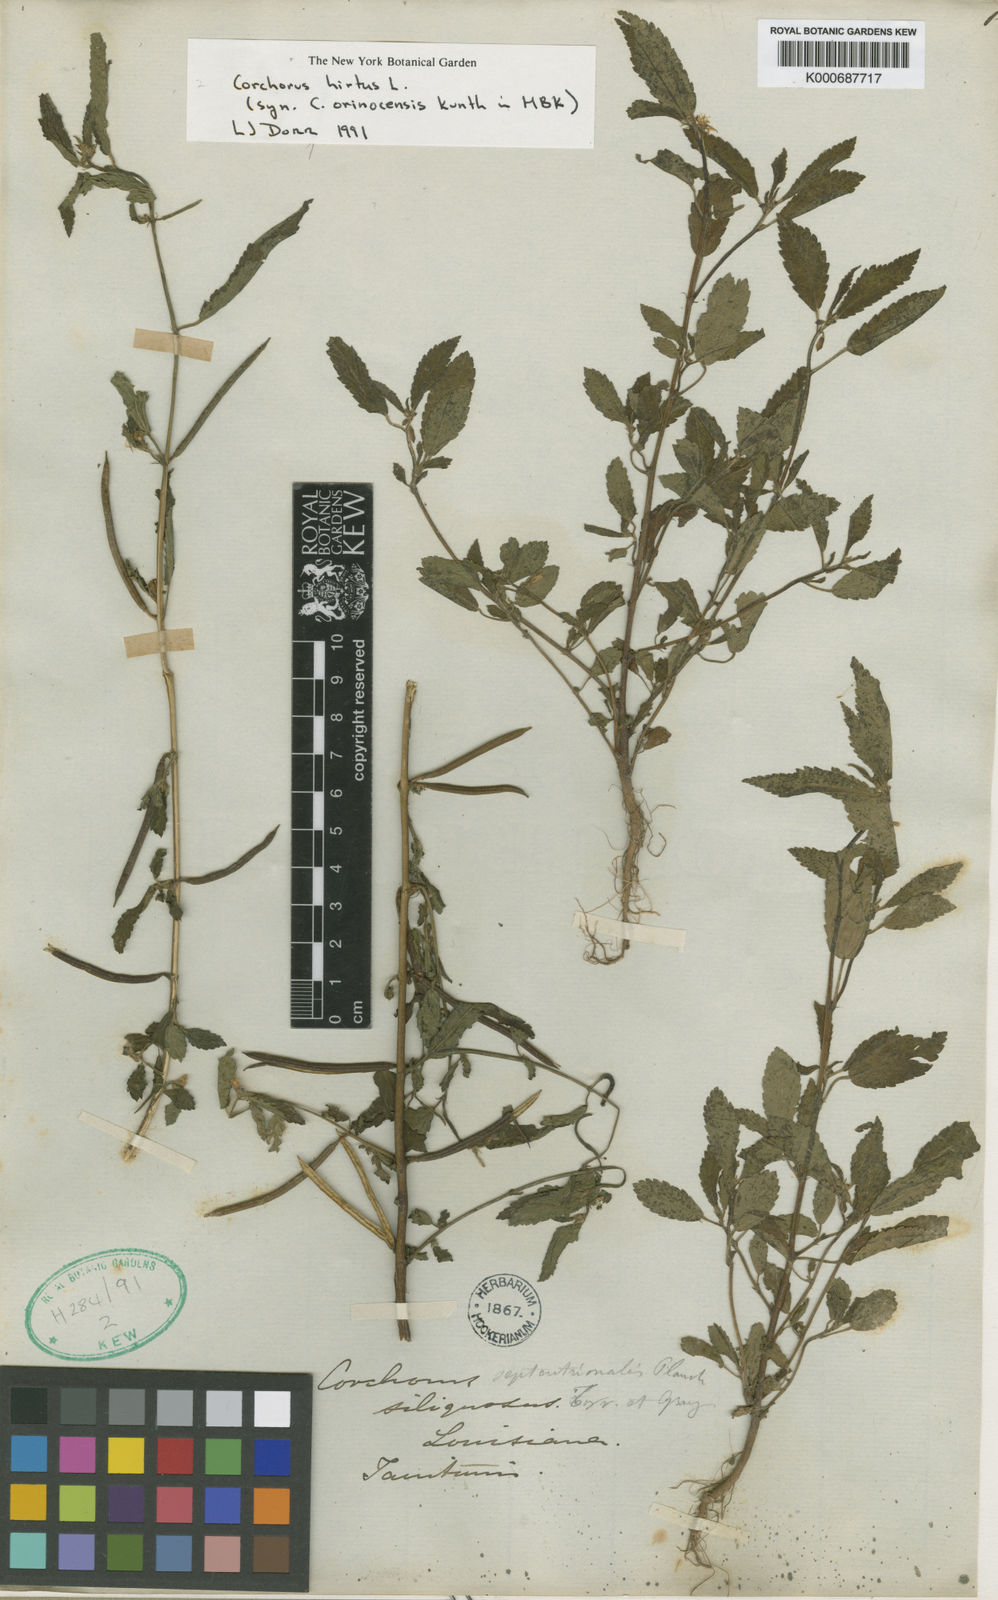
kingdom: Plantae
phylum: Tracheophyta
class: Magnoliopsida
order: Malvales
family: Malvaceae
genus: Corchorus
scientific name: Corchorus hirtus
